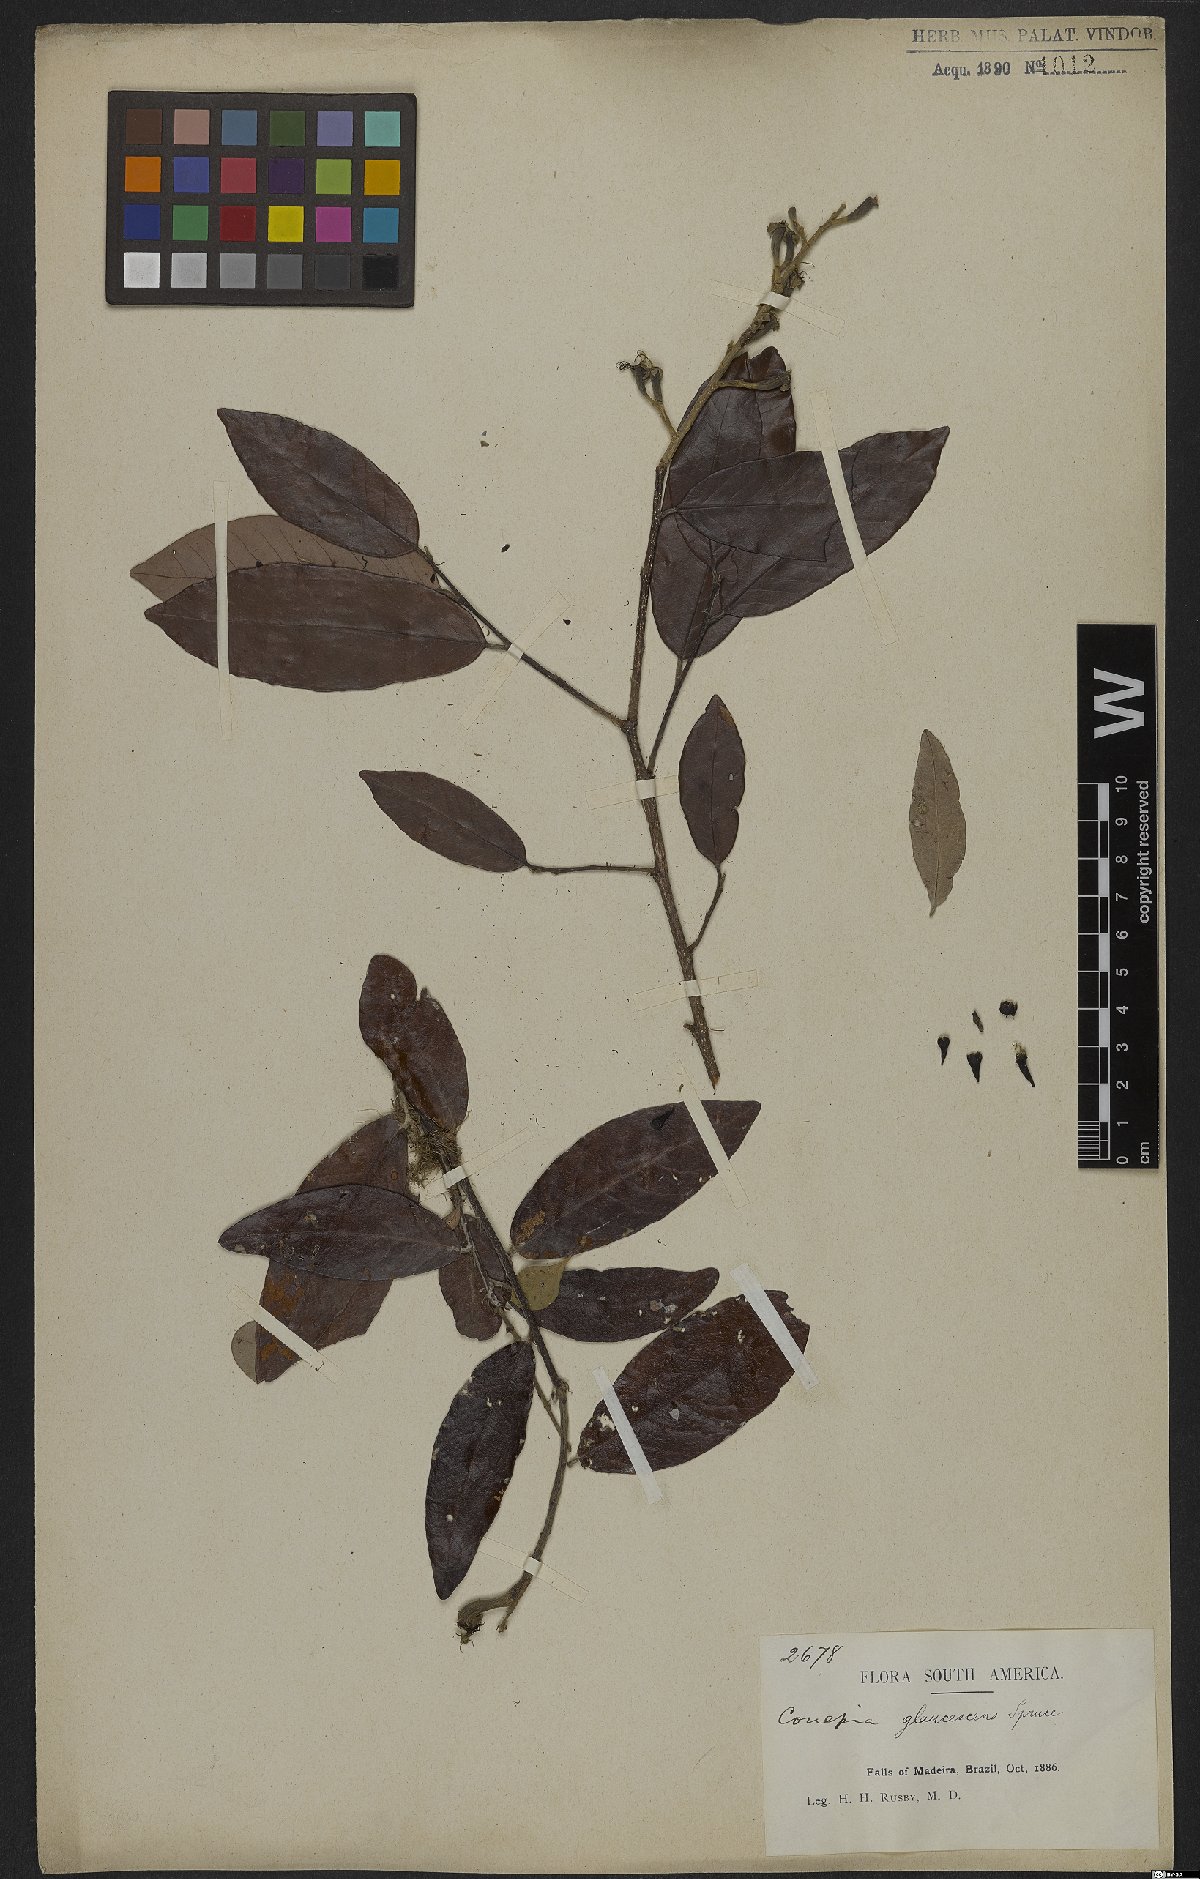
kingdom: Plantae
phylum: Tracheophyta
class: Magnoliopsida
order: Malpighiales
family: Chrysobalanaceae
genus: Couepia
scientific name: Couepia paraensis
